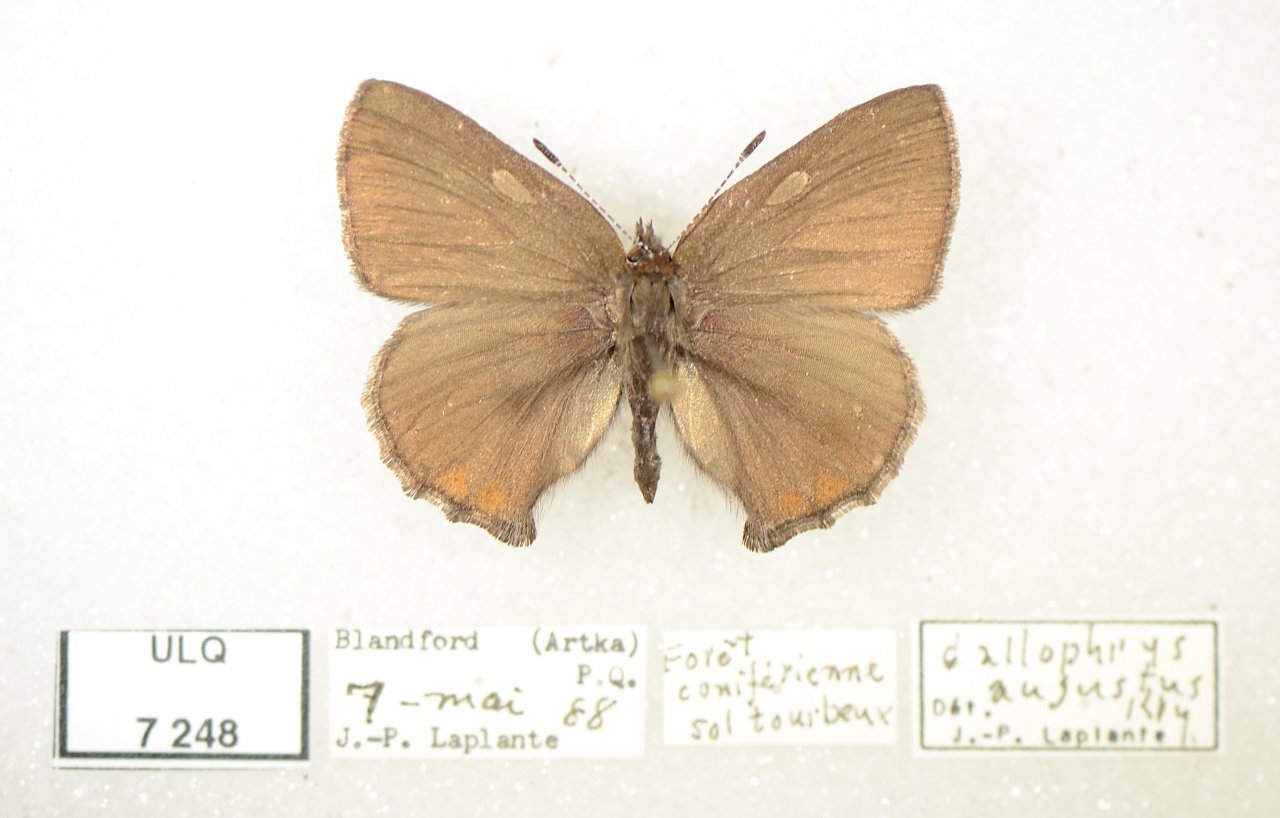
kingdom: Animalia
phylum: Arthropoda
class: Insecta
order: Lepidoptera
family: Lycaenidae
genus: Incisalia
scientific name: Incisalia irioides
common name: Brown Elfin
